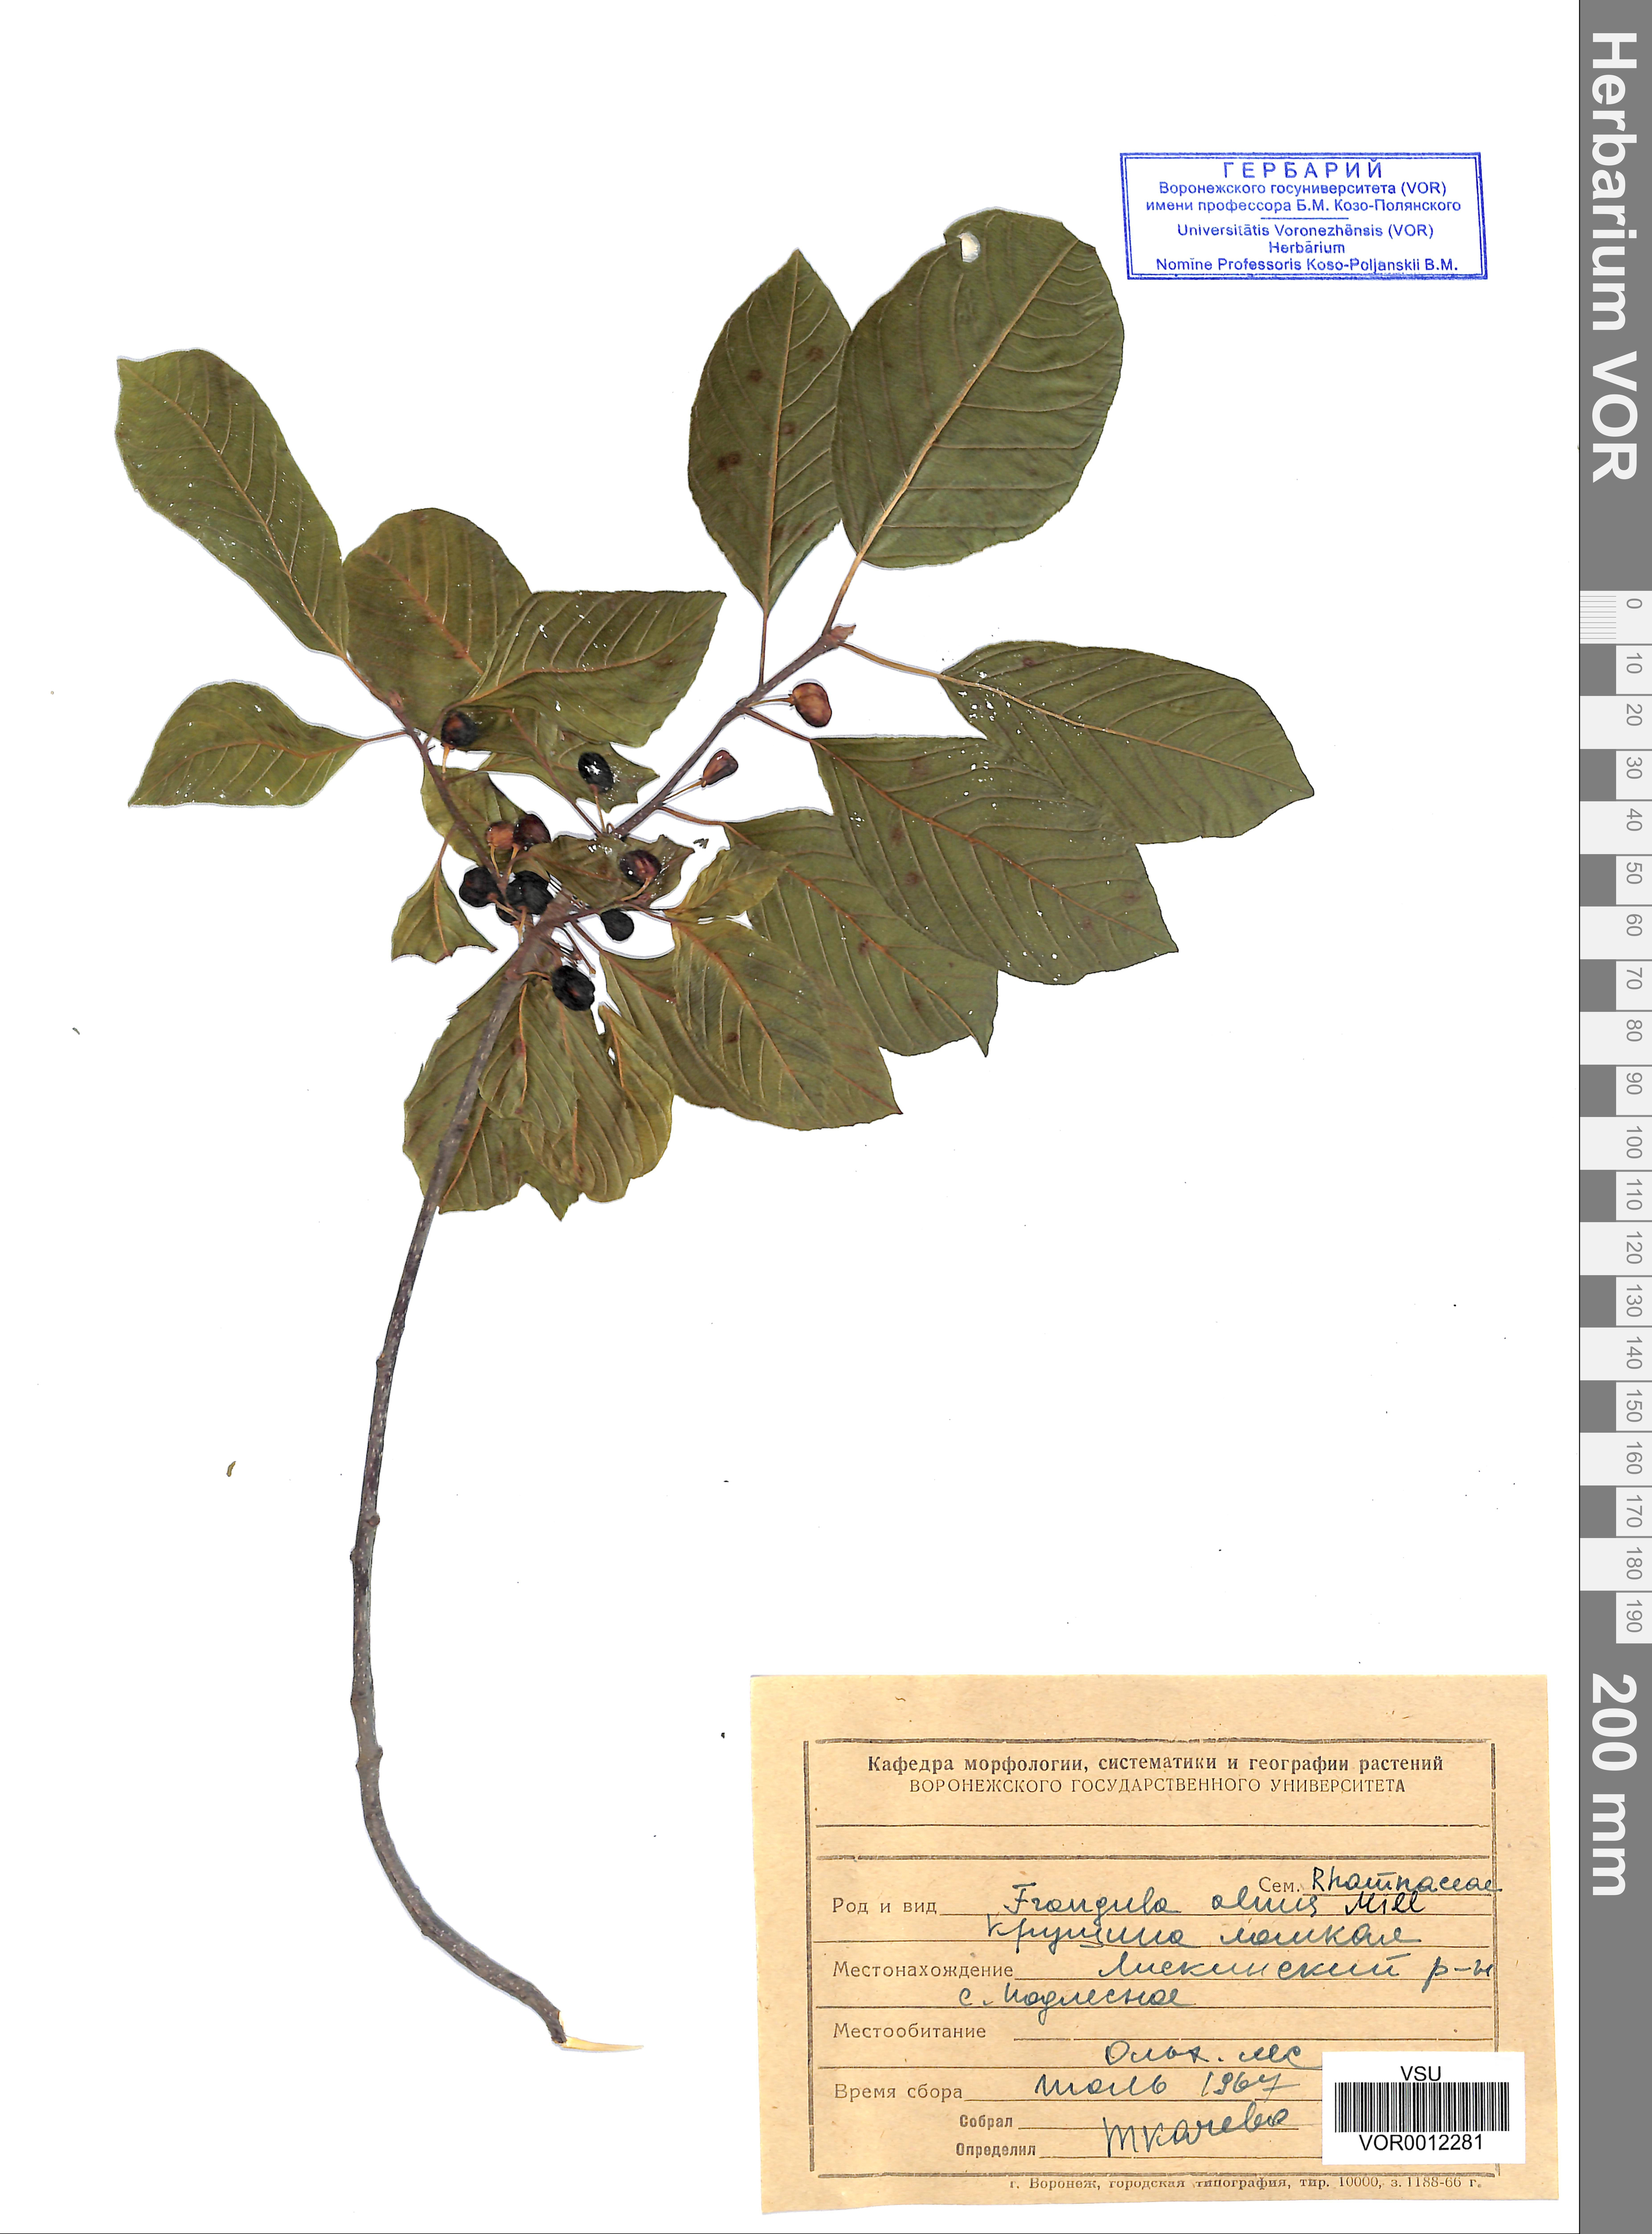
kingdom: Plantae
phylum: Tracheophyta
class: Magnoliopsida
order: Rosales
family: Rhamnaceae
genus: Frangula
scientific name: Frangula alnus
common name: Alder buckthorn
